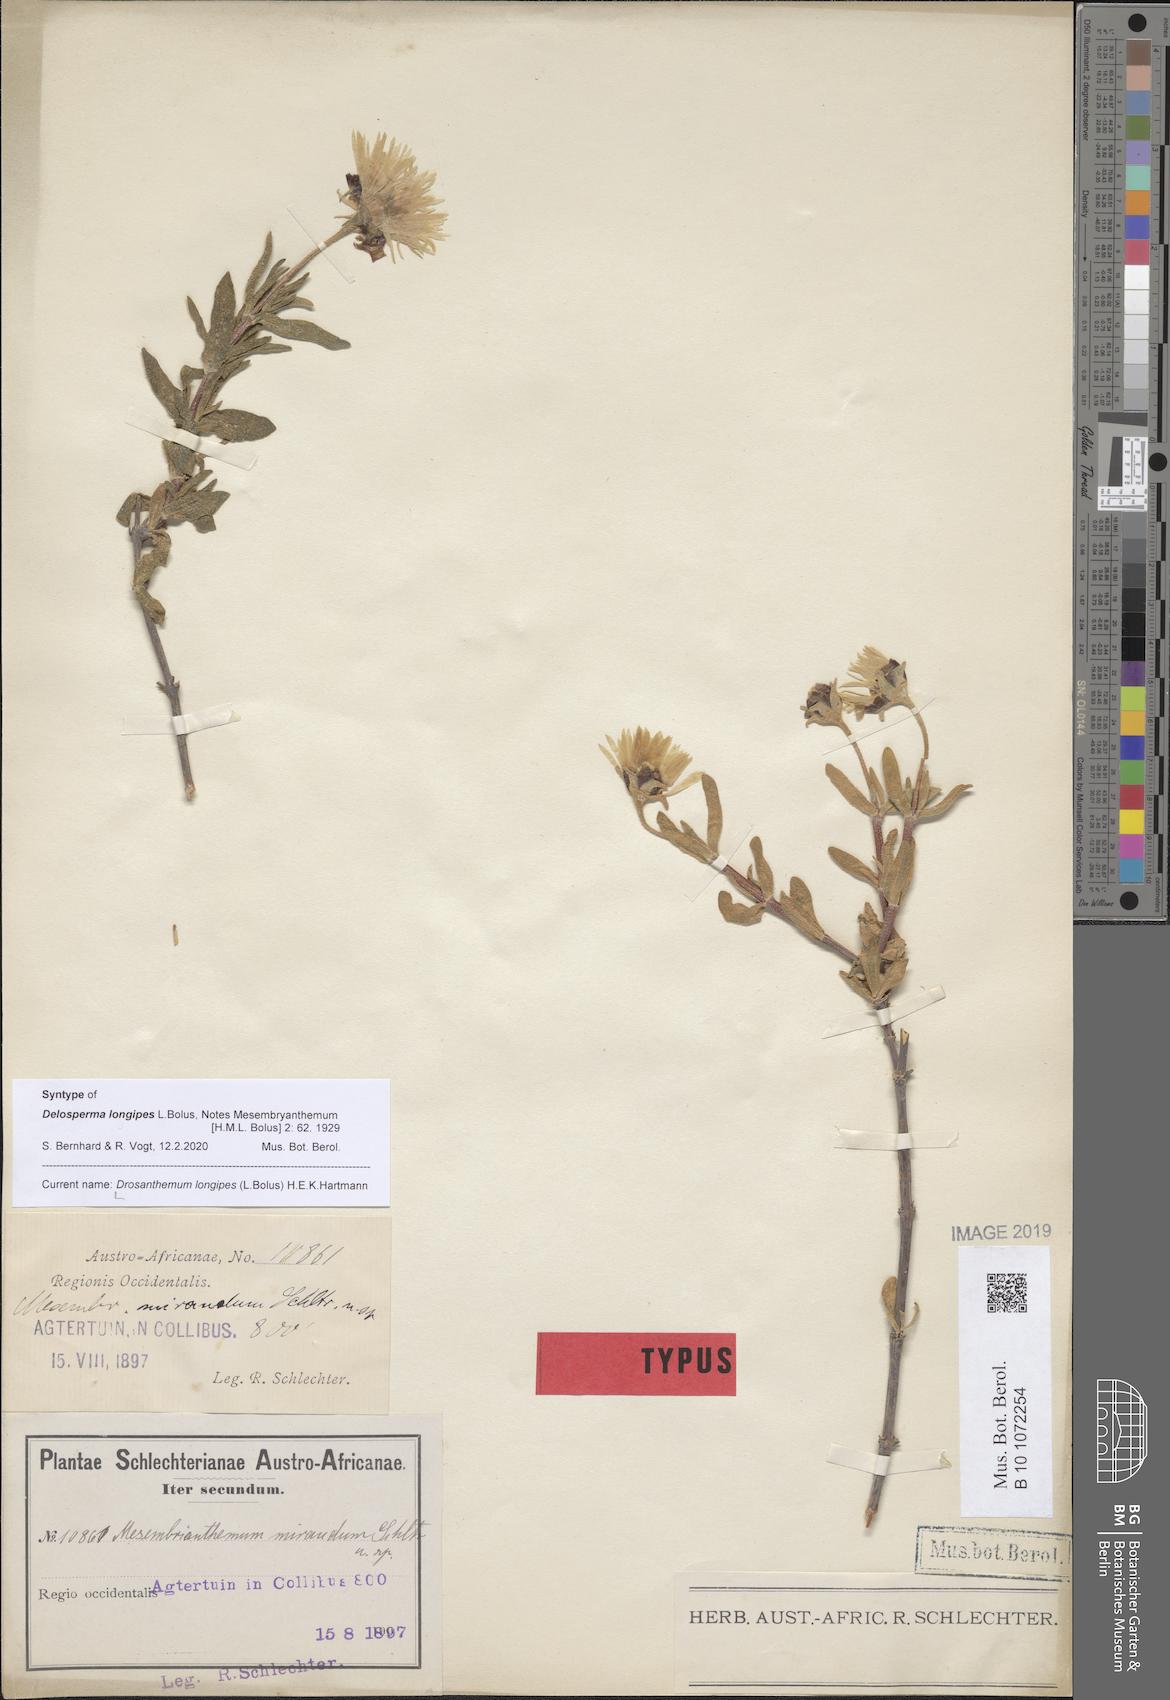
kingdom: Plantae
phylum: Tracheophyta
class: Magnoliopsida
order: Caryophyllales
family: Aizoaceae
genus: Drosanthemum
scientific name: Drosanthemum longipes
